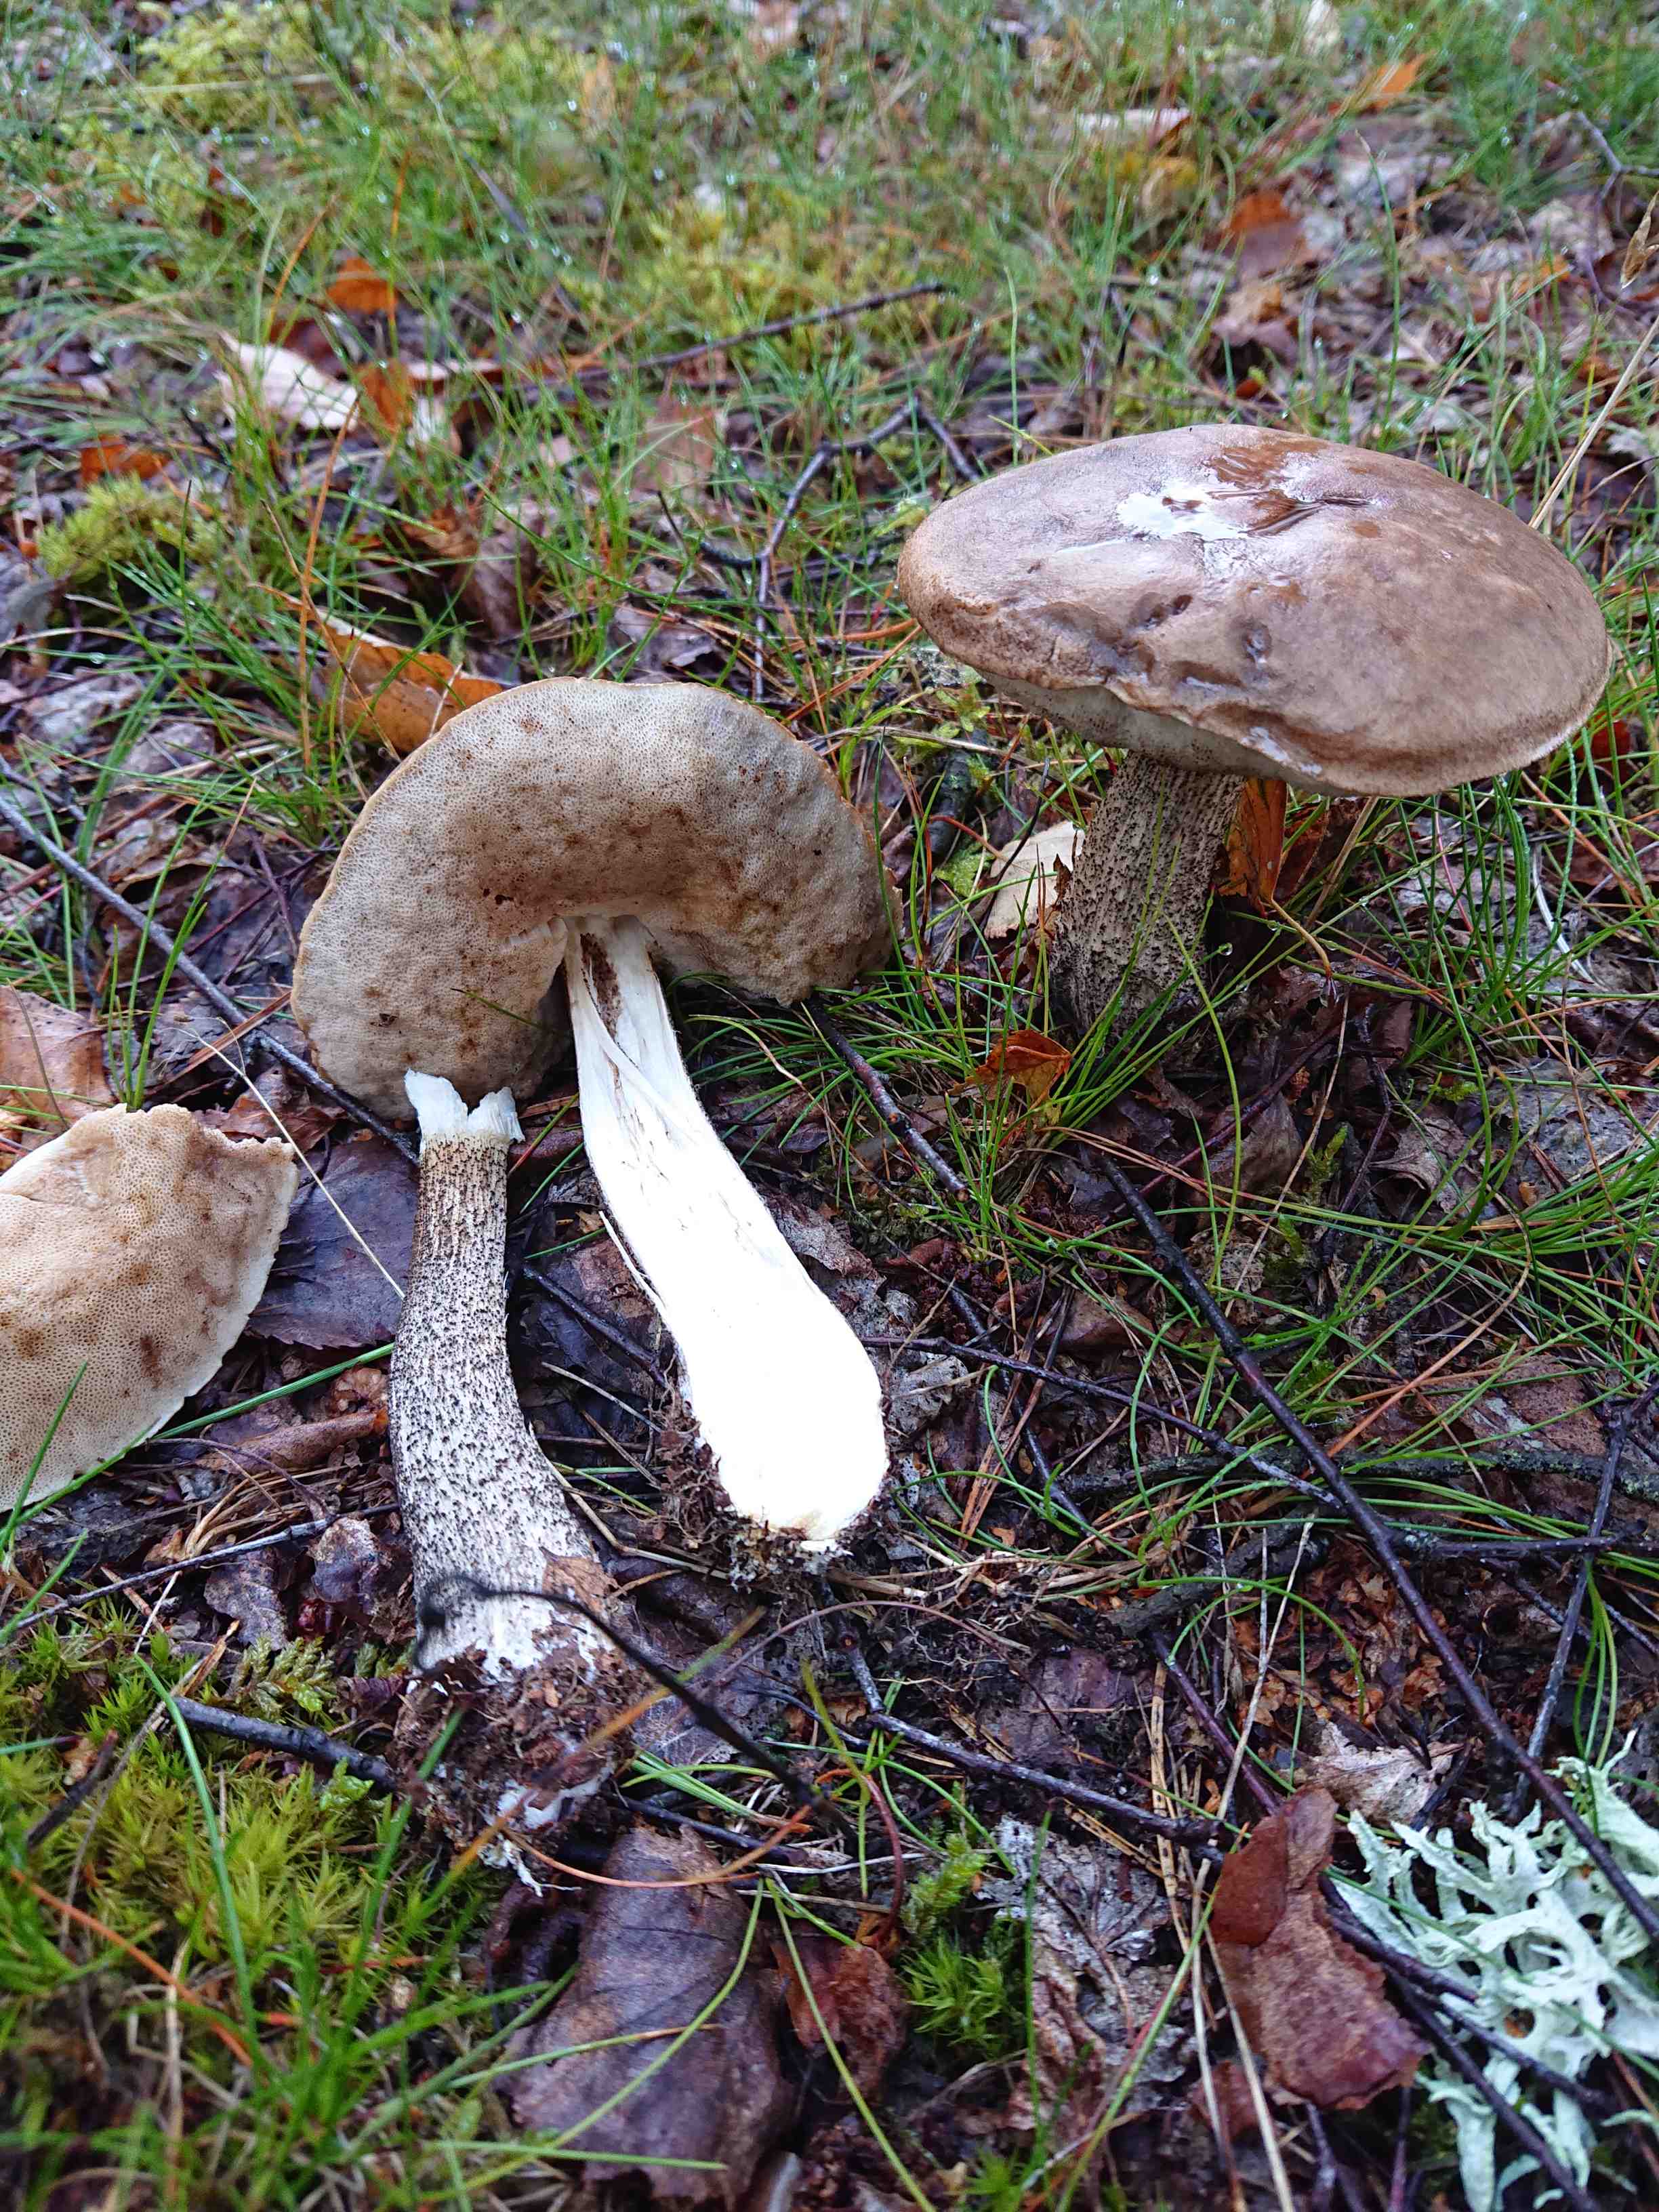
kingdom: Fungi
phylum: Basidiomycota
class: Agaricomycetes
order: Boletales
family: Boletaceae
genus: Leccinum
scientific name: Leccinum scabrum
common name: brun skælrørhat
